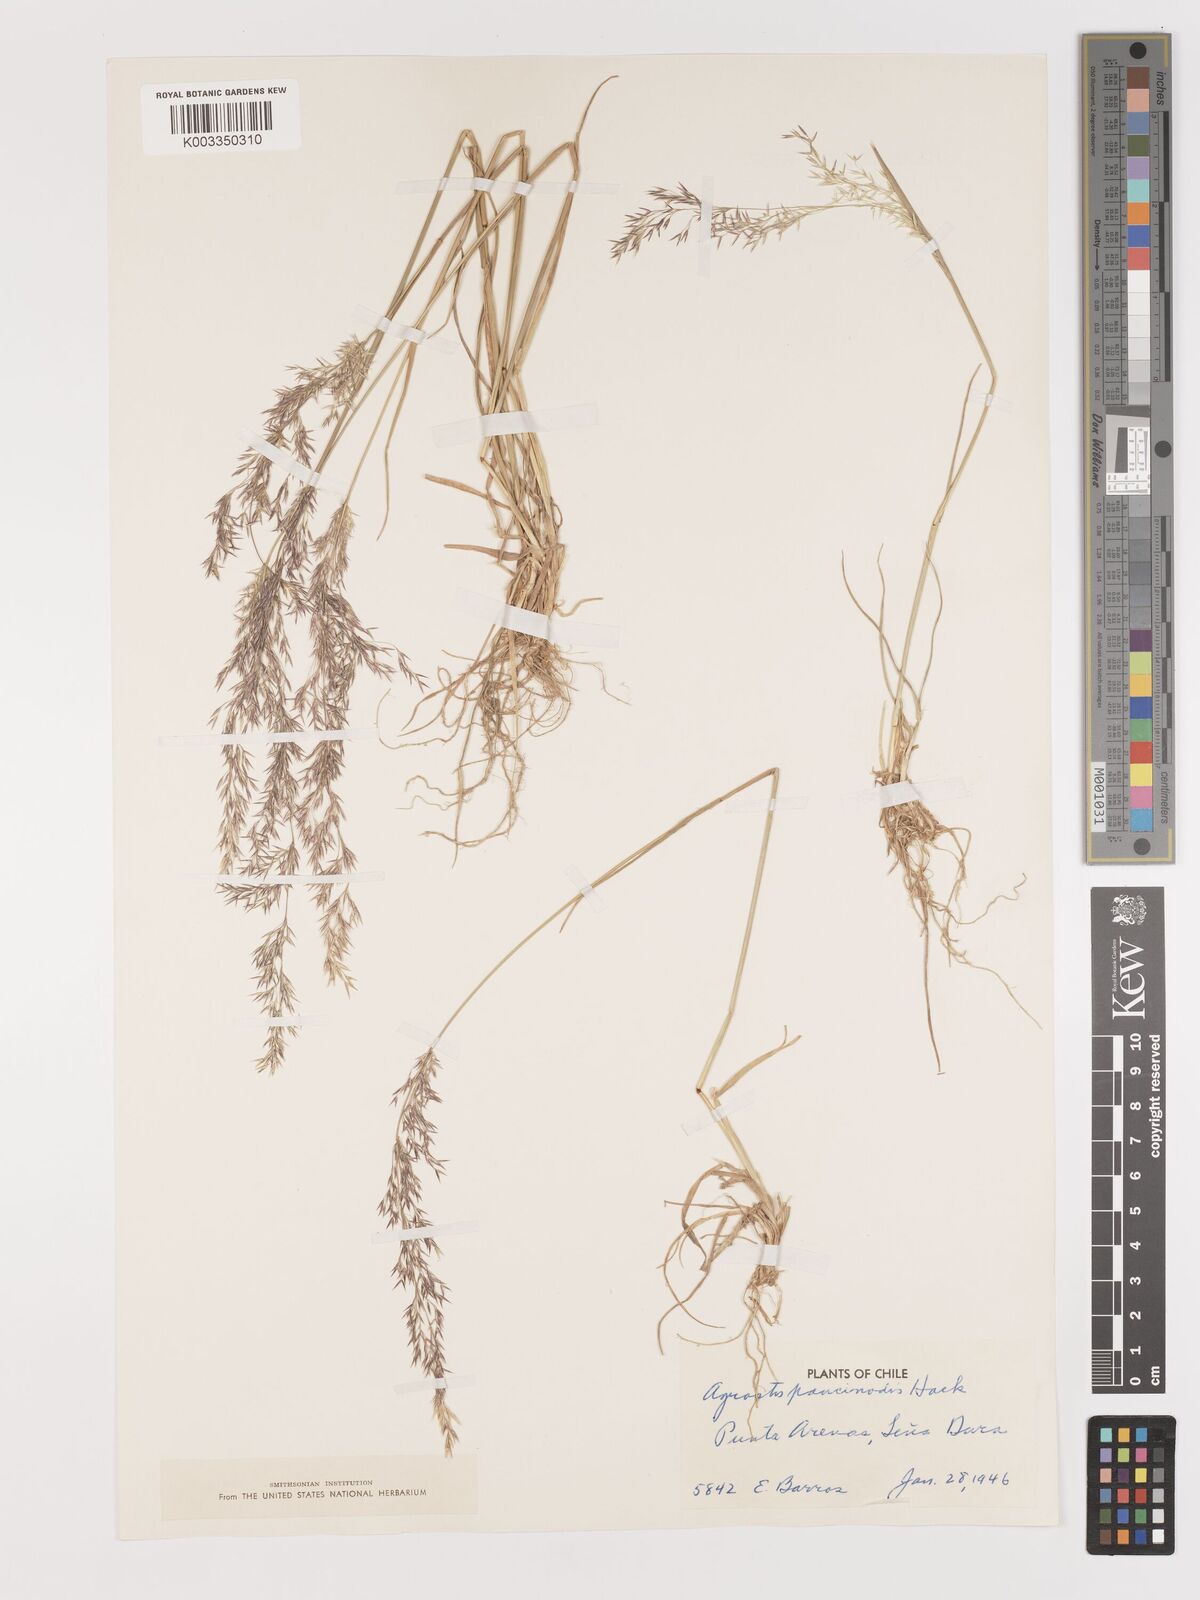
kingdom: Plantae
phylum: Tracheophyta
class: Liliopsida
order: Poales
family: Poaceae
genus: Agrostis
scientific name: Agrostis uliginosa
